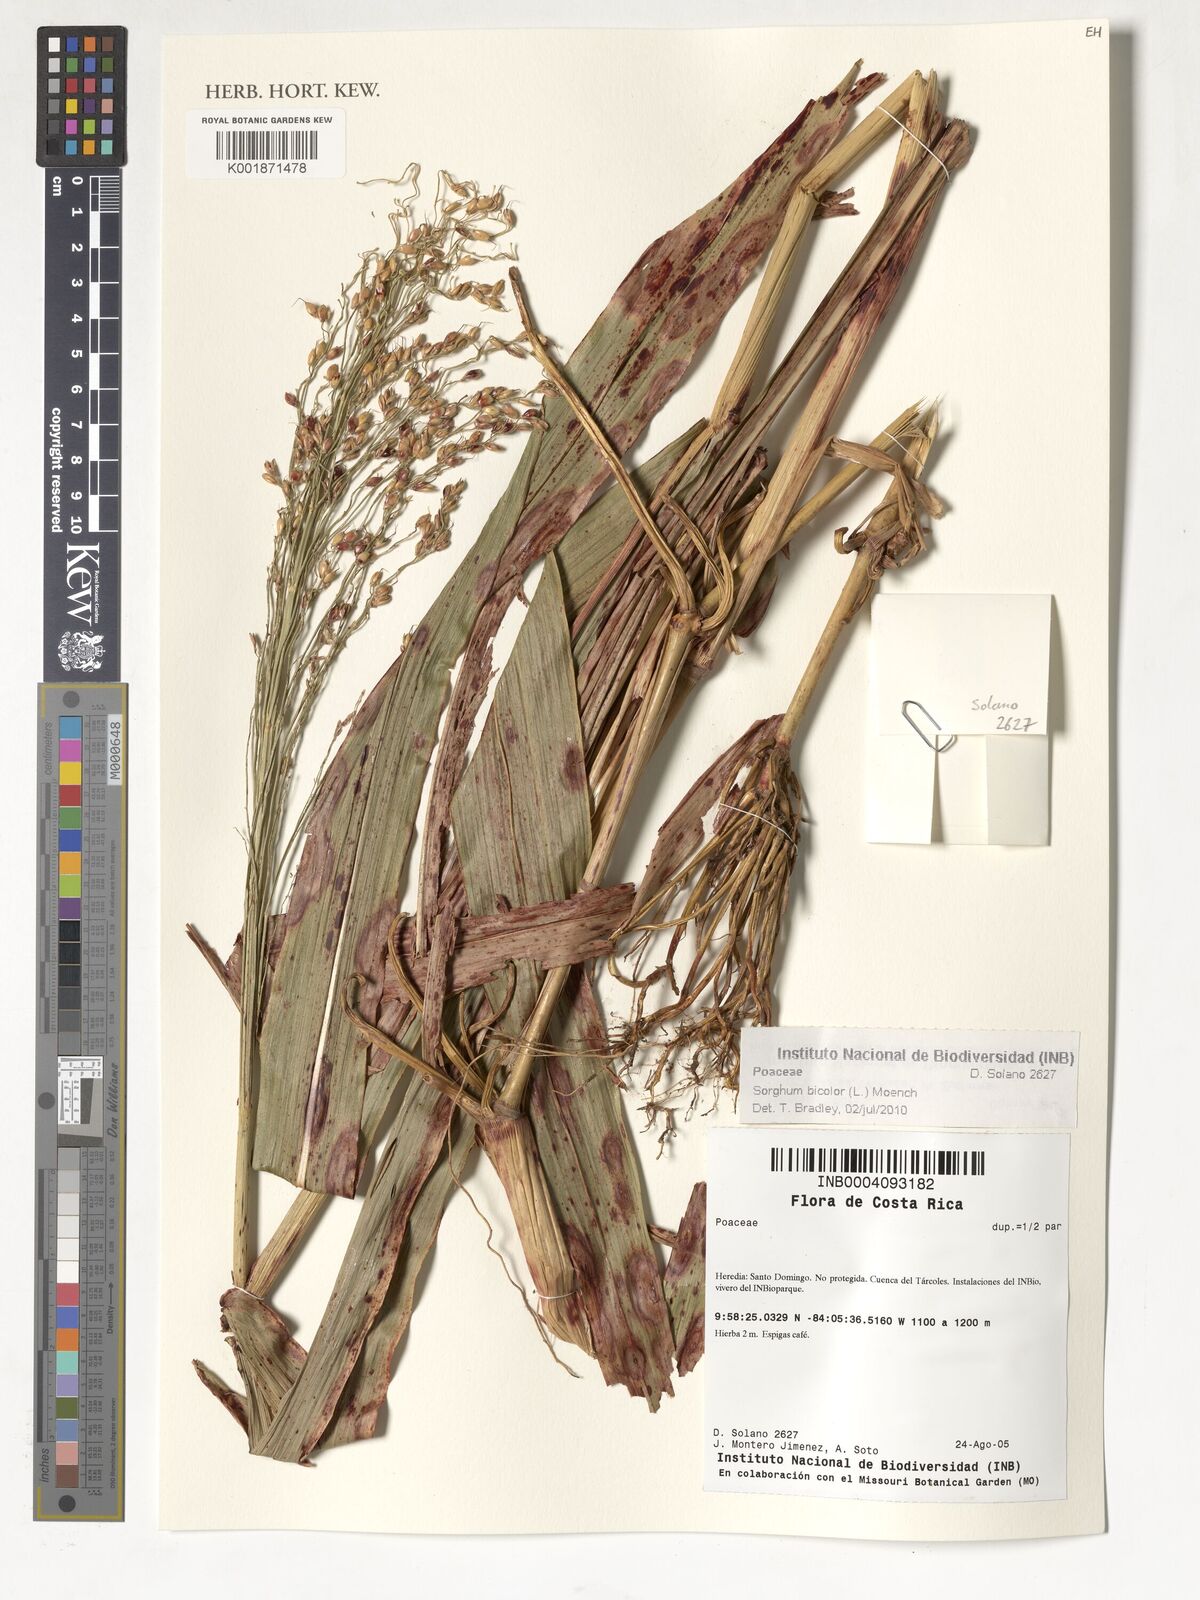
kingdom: Plantae
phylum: Tracheophyta
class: Liliopsida
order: Poales
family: Poaceae
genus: Sorghum
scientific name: Sorghum bicolor
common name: Sorghum
